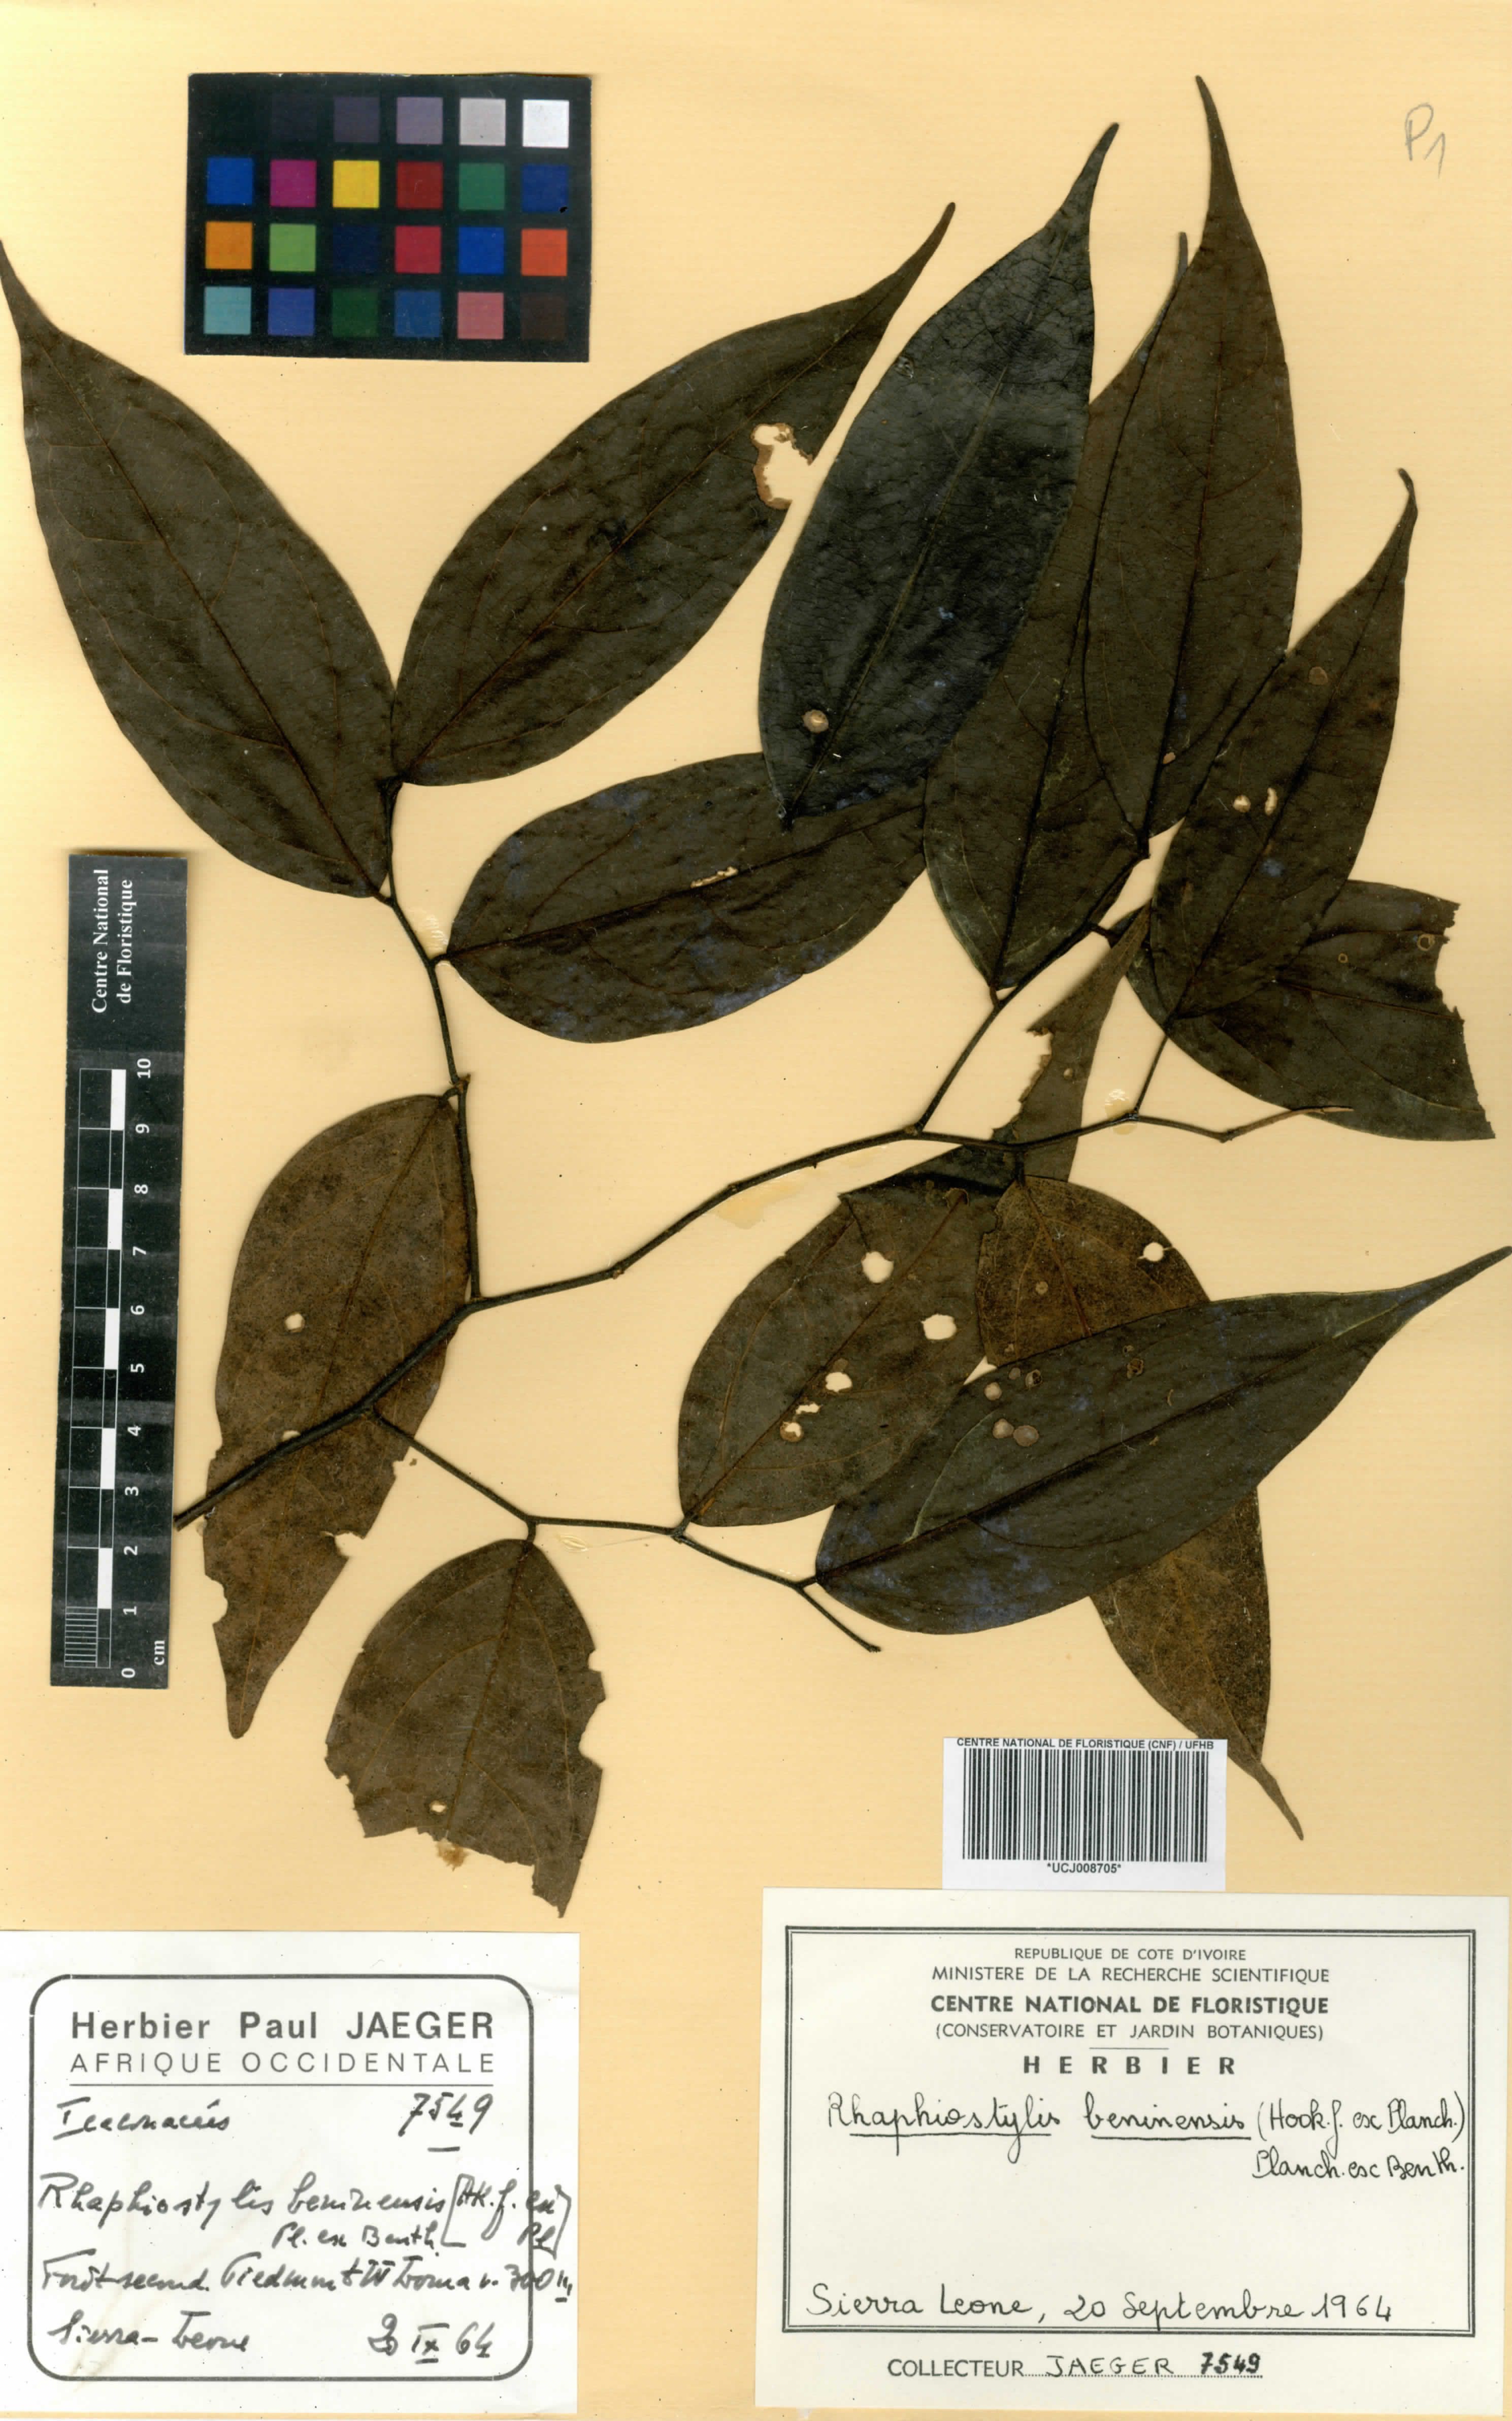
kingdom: Plantae
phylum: Tracheophyta
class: Magnoliopsida
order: Metteniusales
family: Metteniusaceae
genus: Rhaphiostylis
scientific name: Rhaphiostylis beninensis
